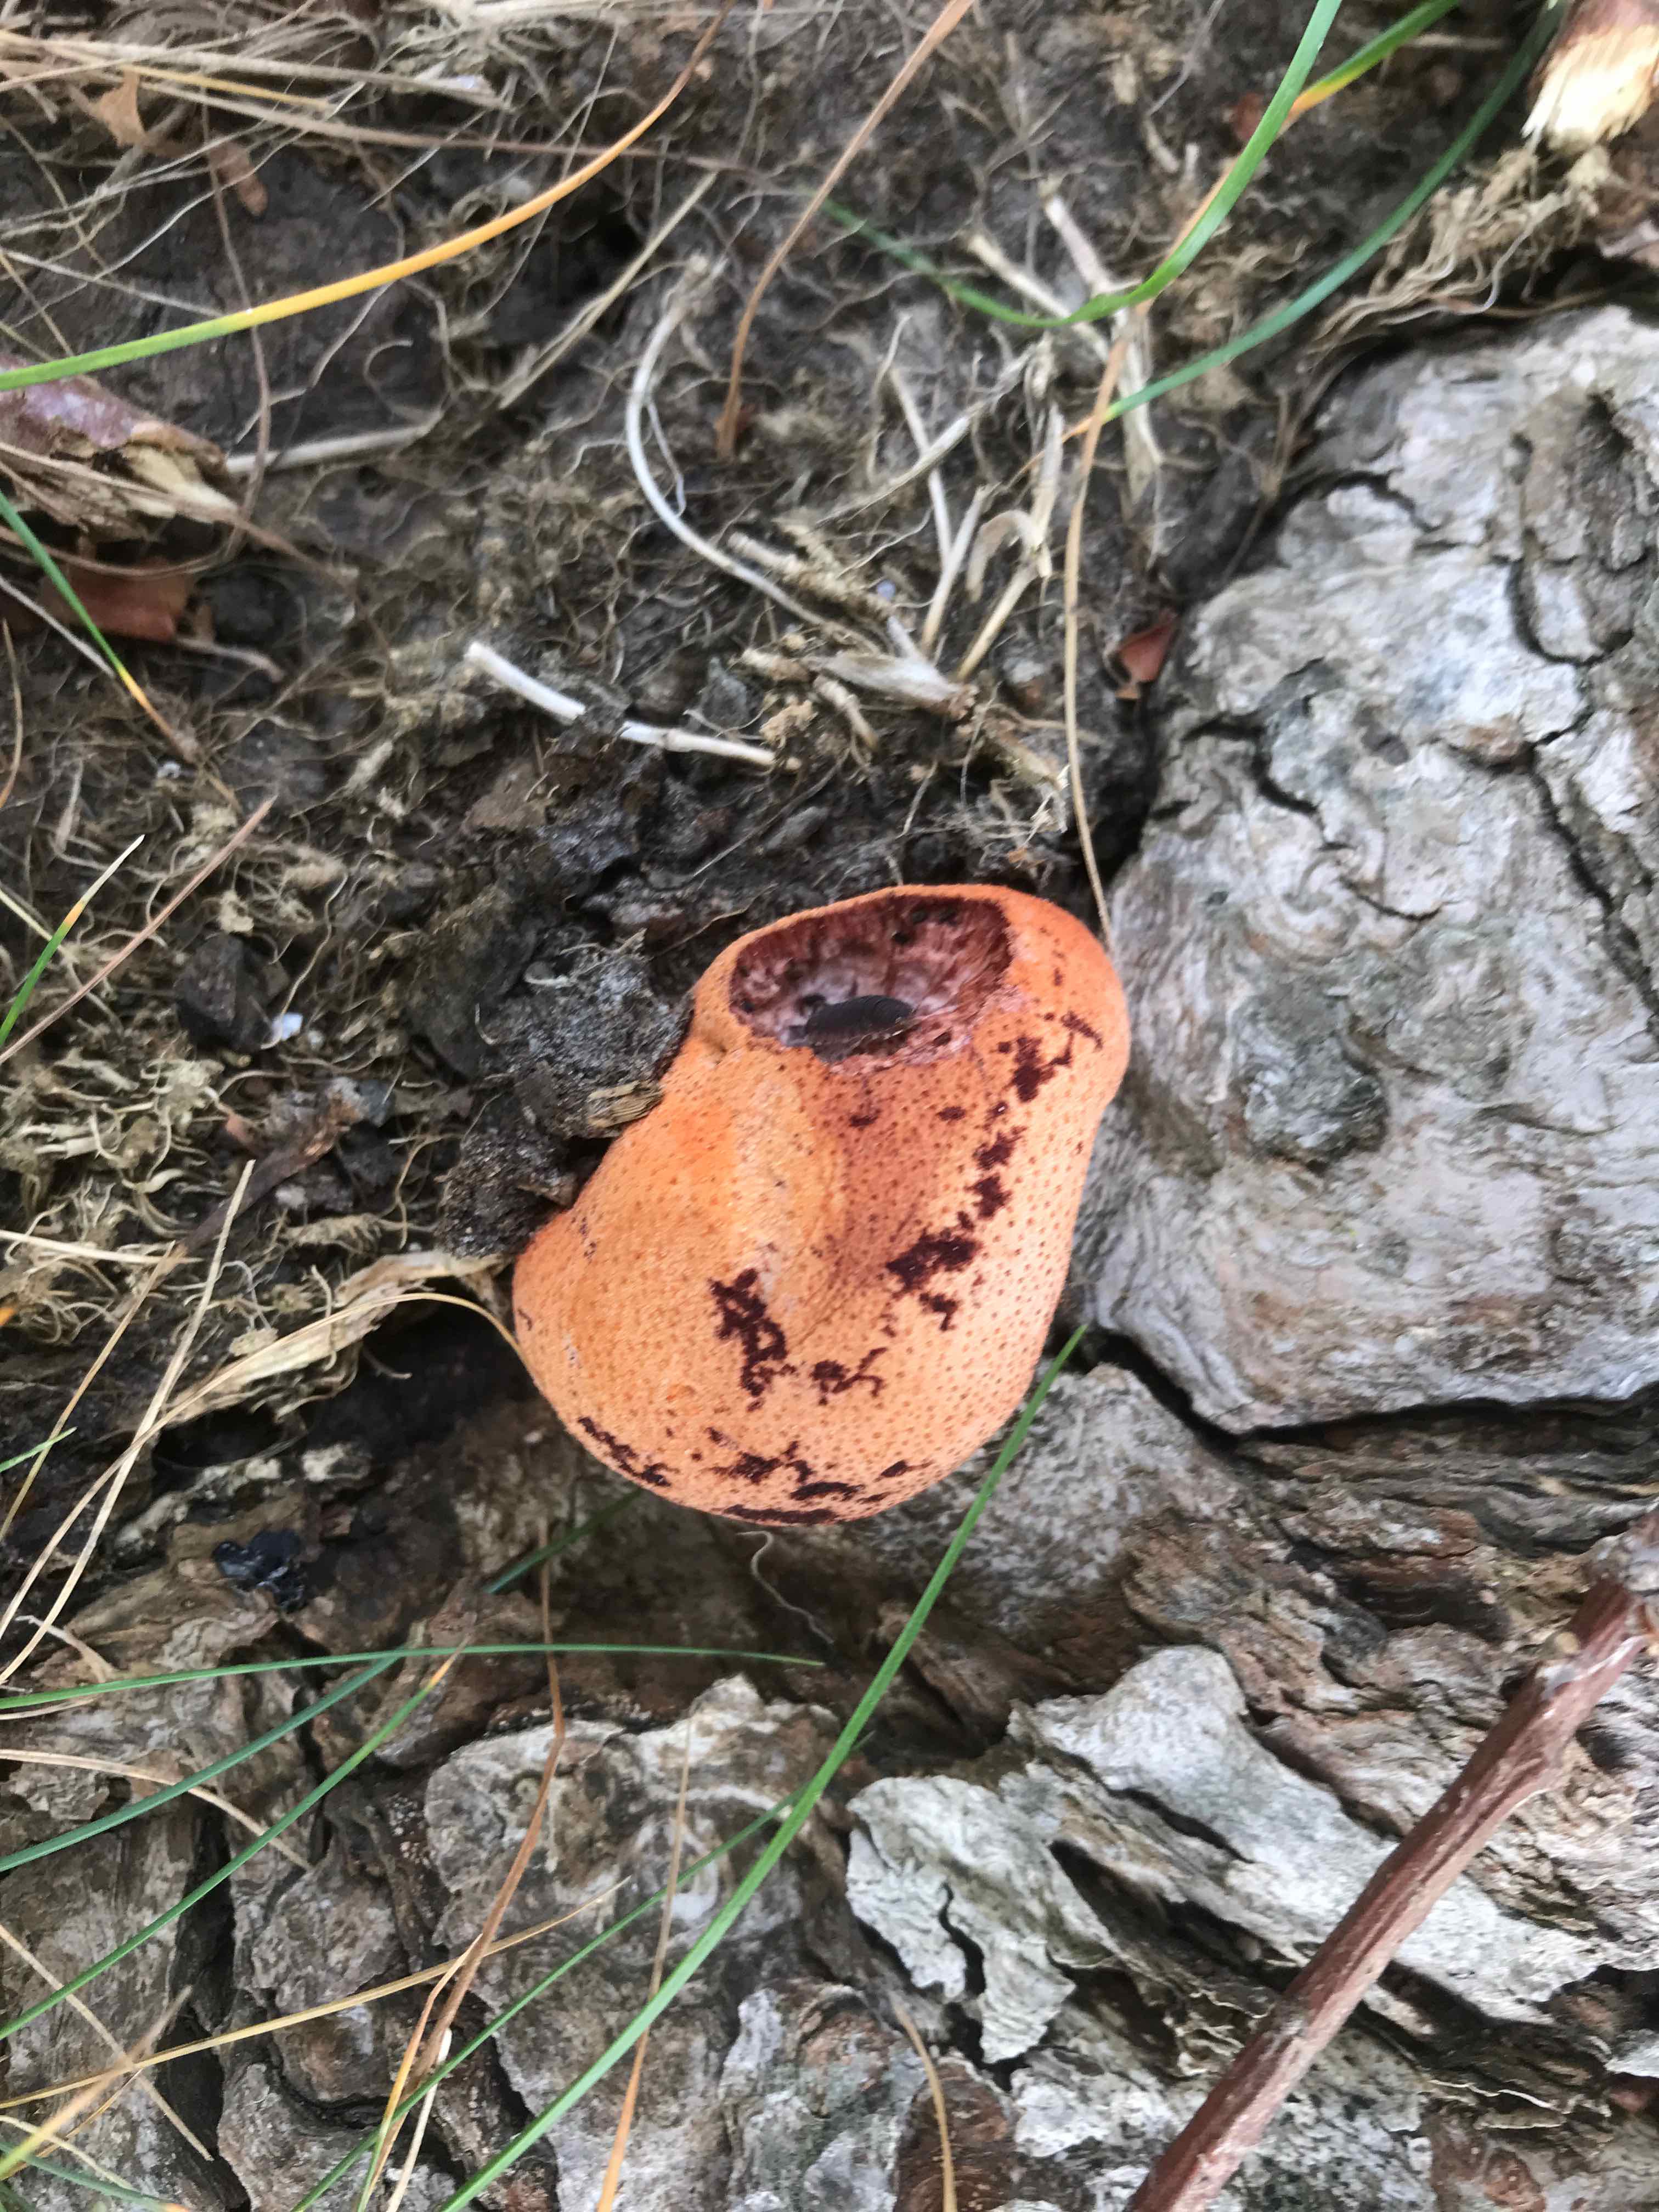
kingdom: Fungi
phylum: Basidiomycota
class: Agaricomycetes
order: Agaricales
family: Fistulinaceae
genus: Fistulina
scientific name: Fistulina hepatica
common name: oksetunge
